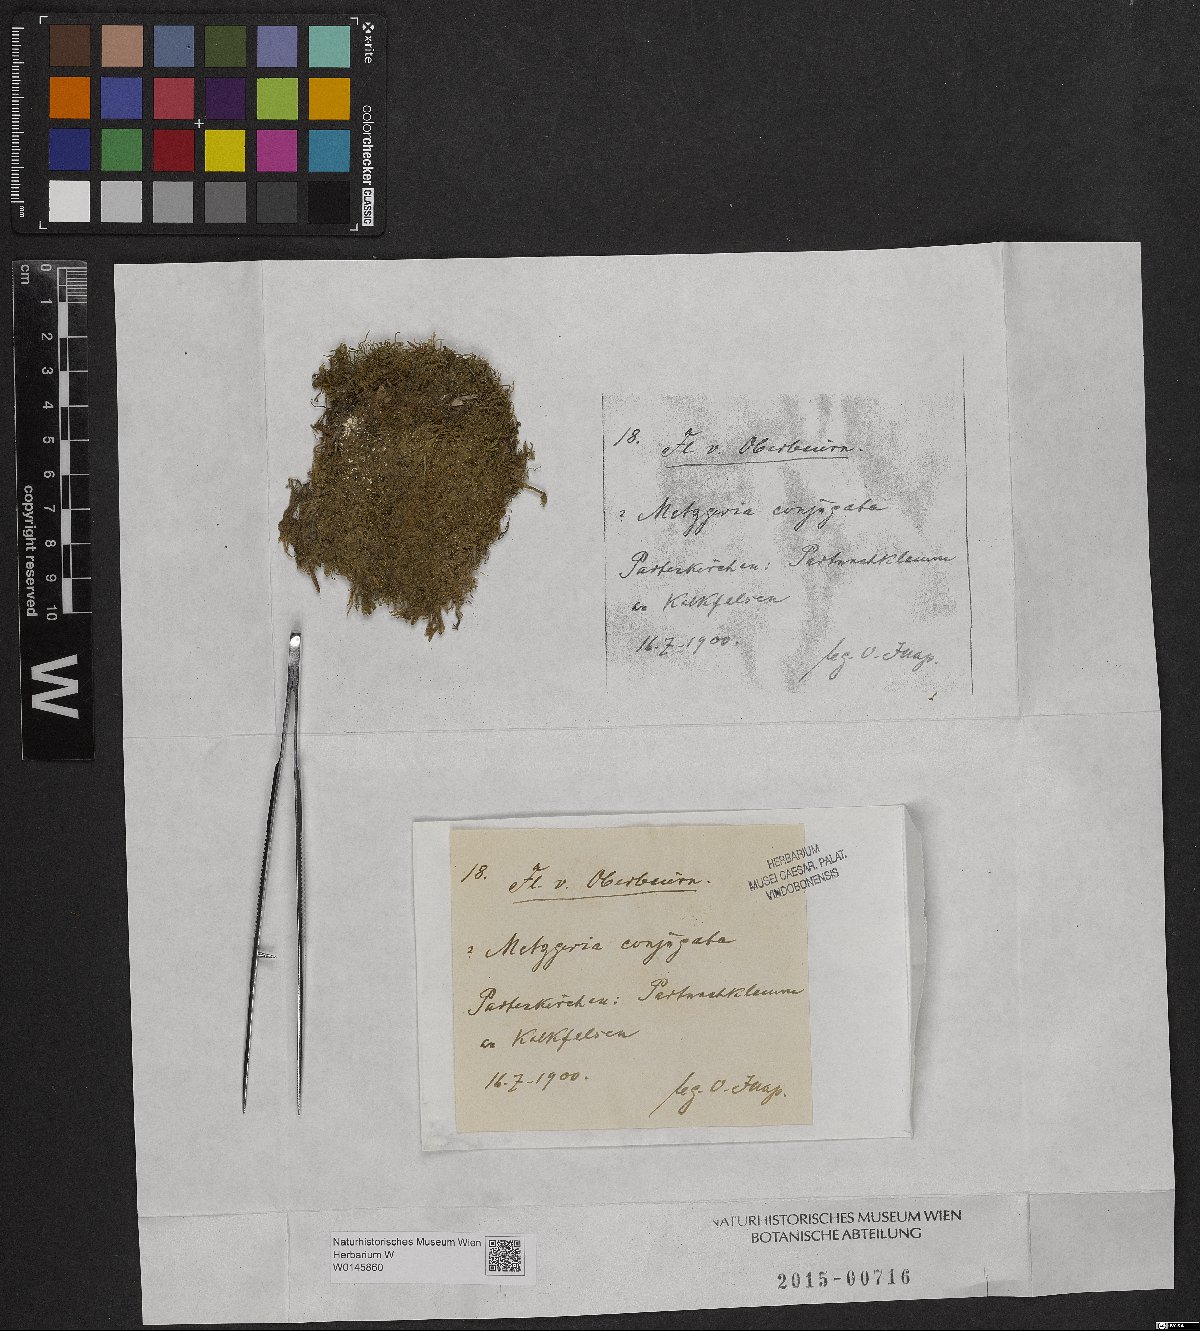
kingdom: Plantae
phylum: Marchantiophyta
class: Jungermanniopsida
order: Metzgeriales
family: Metzgeriaceae
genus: Metzgeria
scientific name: Metzgeria conjugata
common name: Rock veilwort
